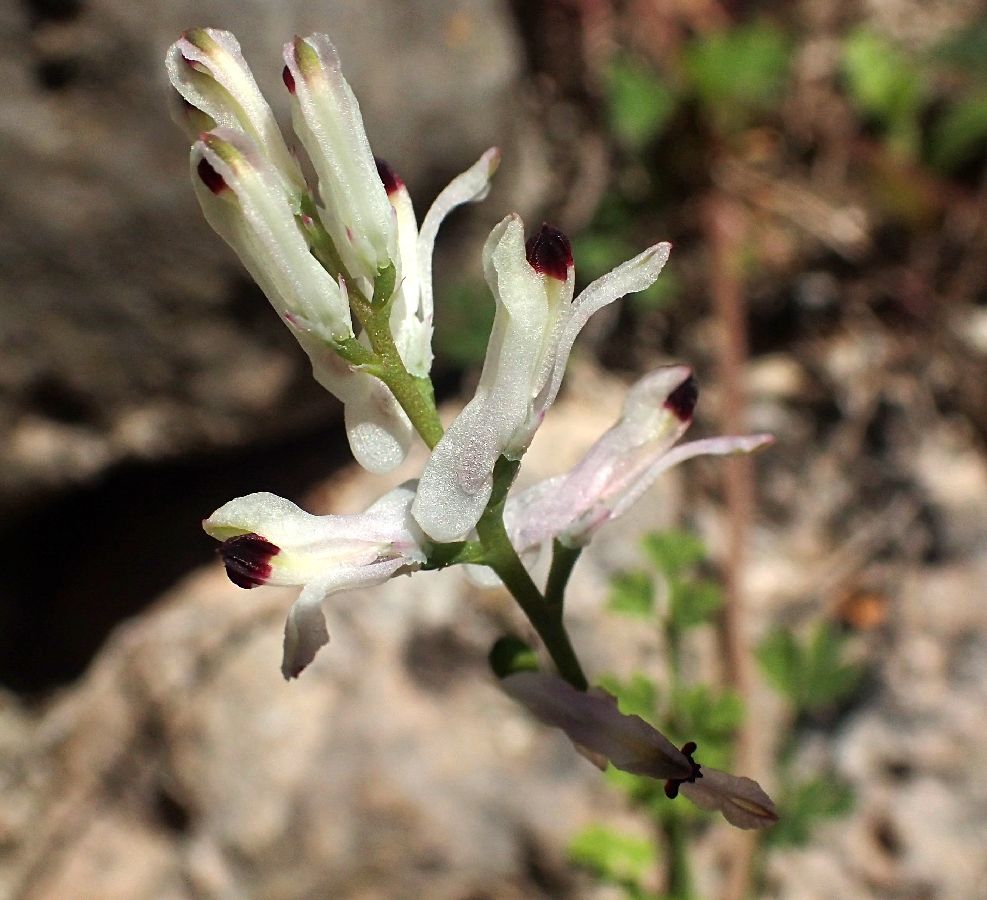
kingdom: Plantae
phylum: Tracheophyta
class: Magnoliopsida
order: Ranunculales
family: Papaveraceae
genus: Fumaria
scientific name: Fumaria bastardii
